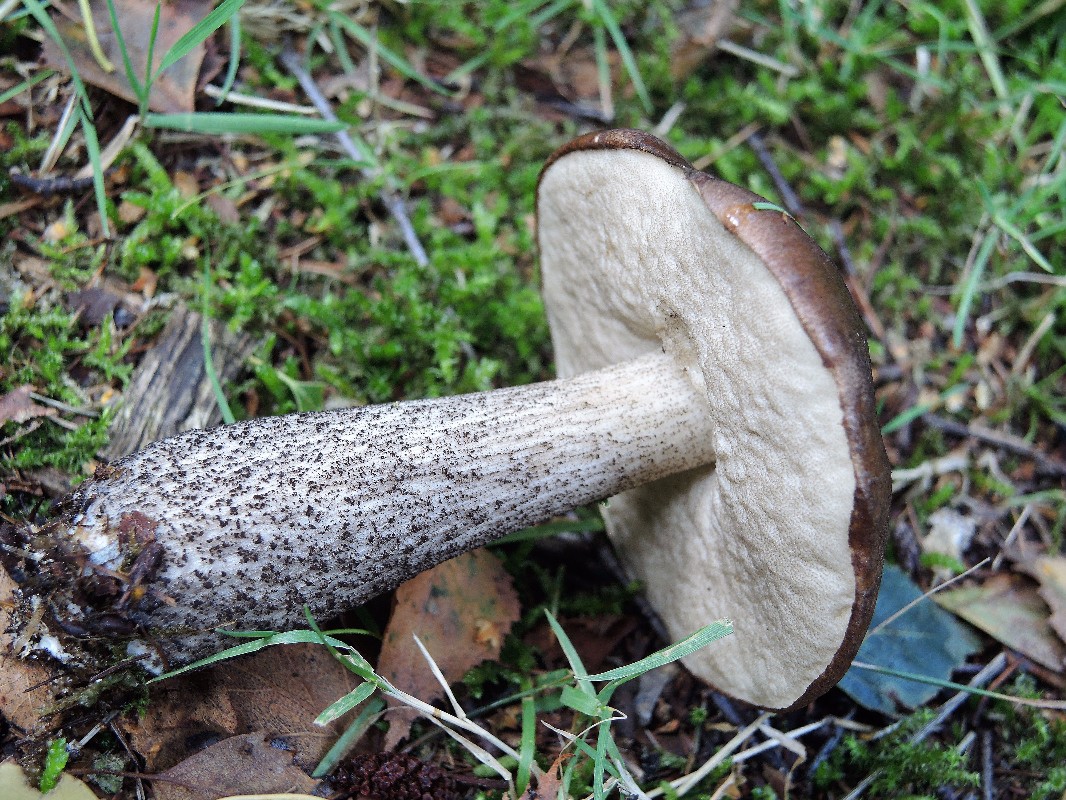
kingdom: Fungi
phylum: Basidiomycota
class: Agaricomycetes
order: Boletales
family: Boletaceae
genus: Leccinum
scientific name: Leccinum scabrum
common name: brun skælrørhat
